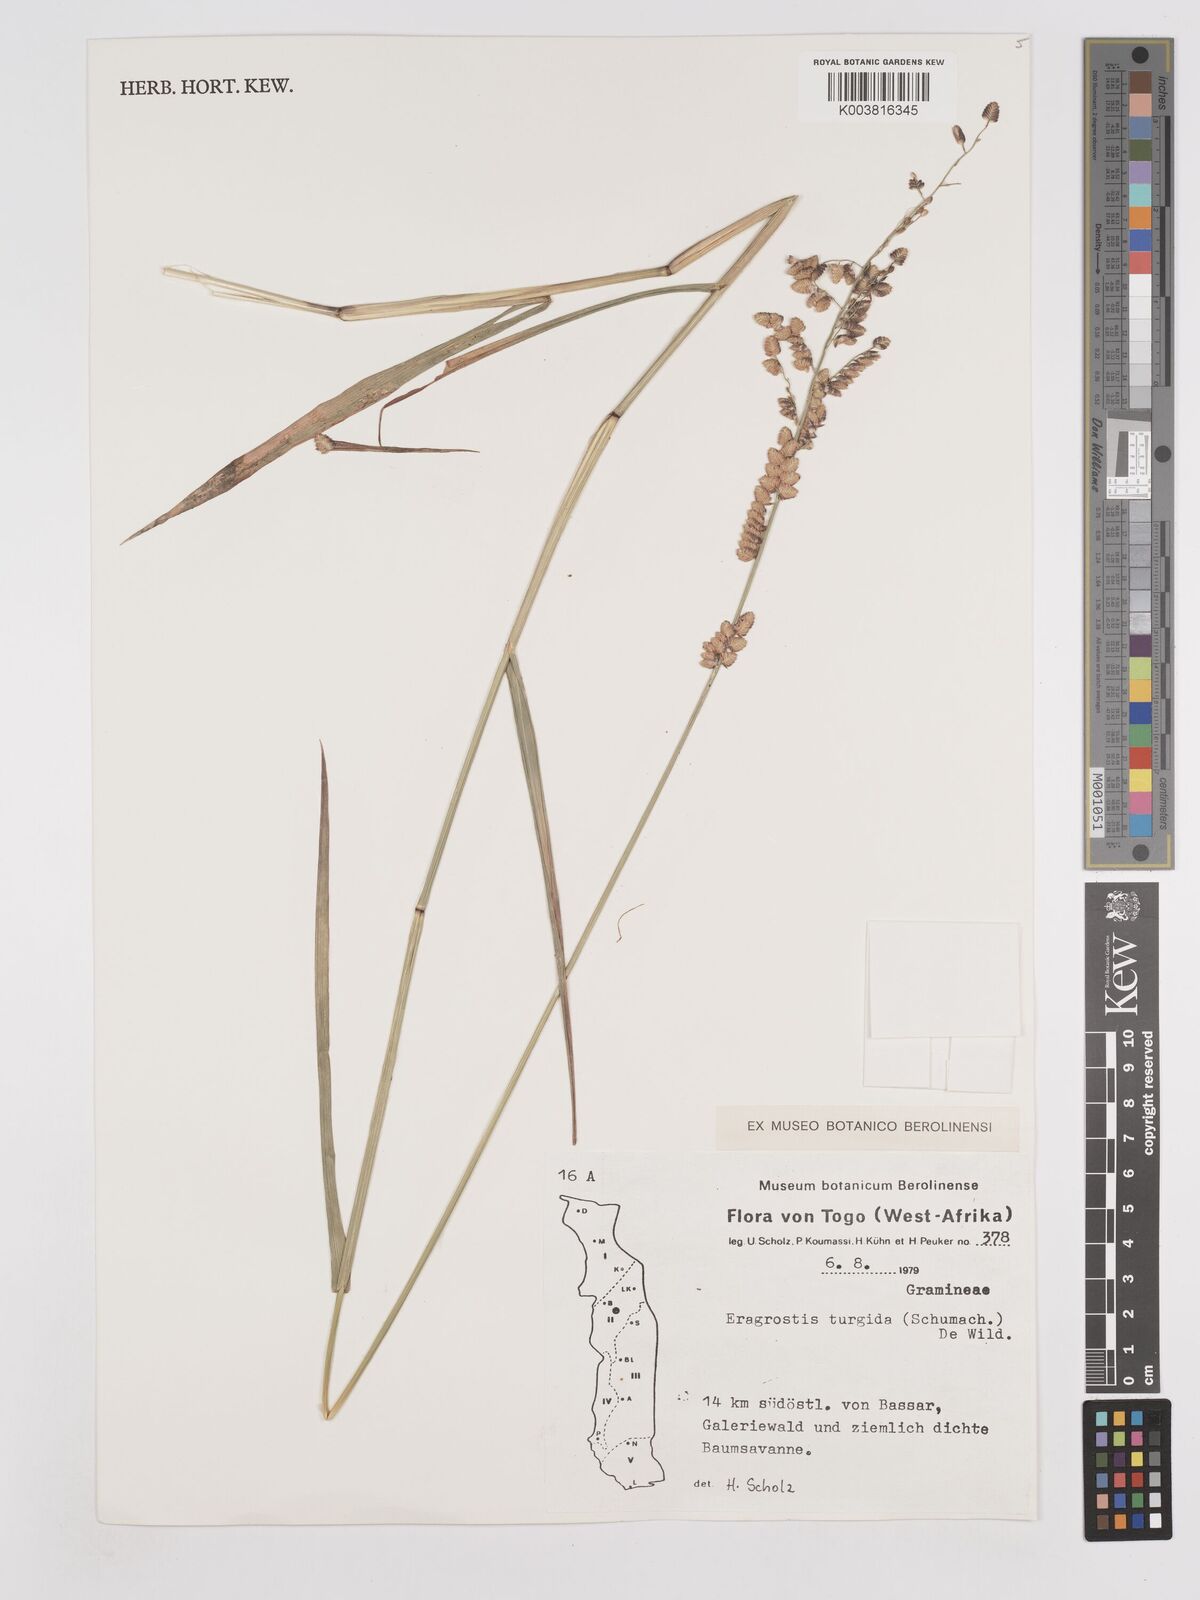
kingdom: Plantae
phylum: Tracheophyta
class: Liliopsida
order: Poales
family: Poaceae
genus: Eragrostis
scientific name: Eragrostis turgida
